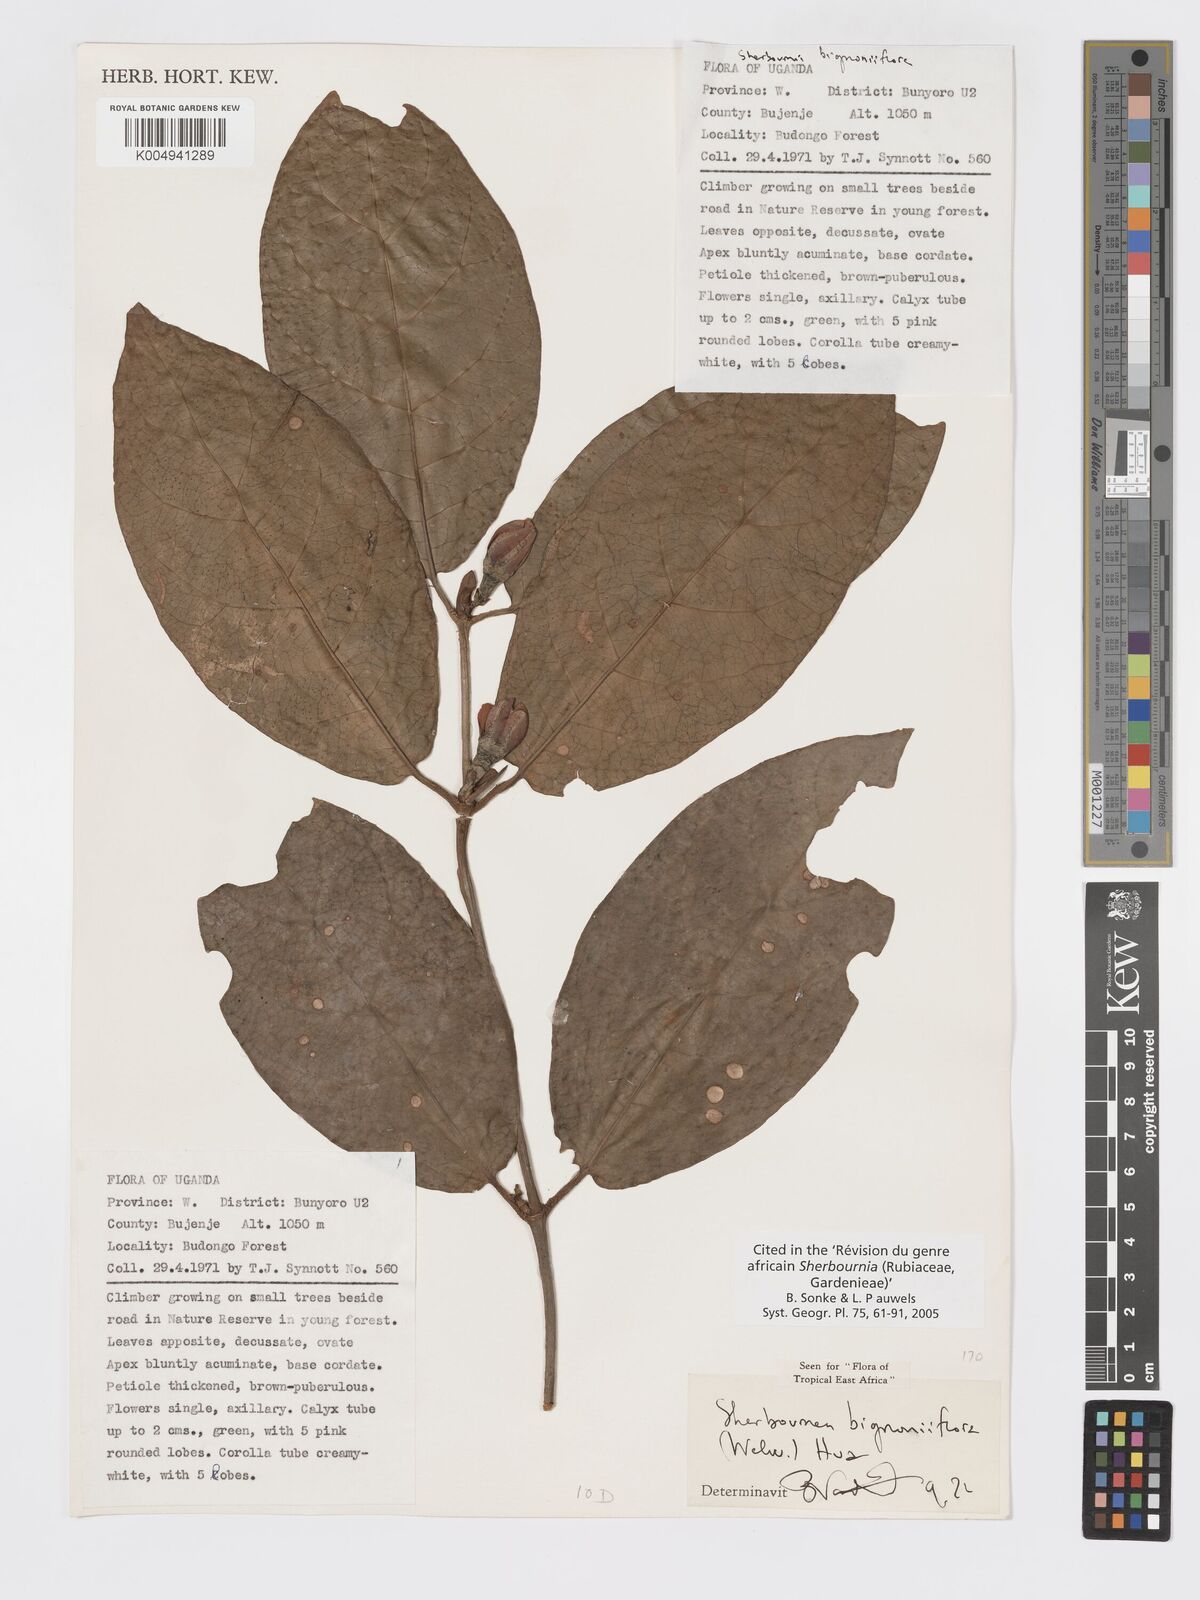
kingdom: Plantae
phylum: Tracheophyta
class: Magnoliopsida
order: Gentianales
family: Rubiaceae
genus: Sherbournia
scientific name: Sherbournia bignoniiflora
